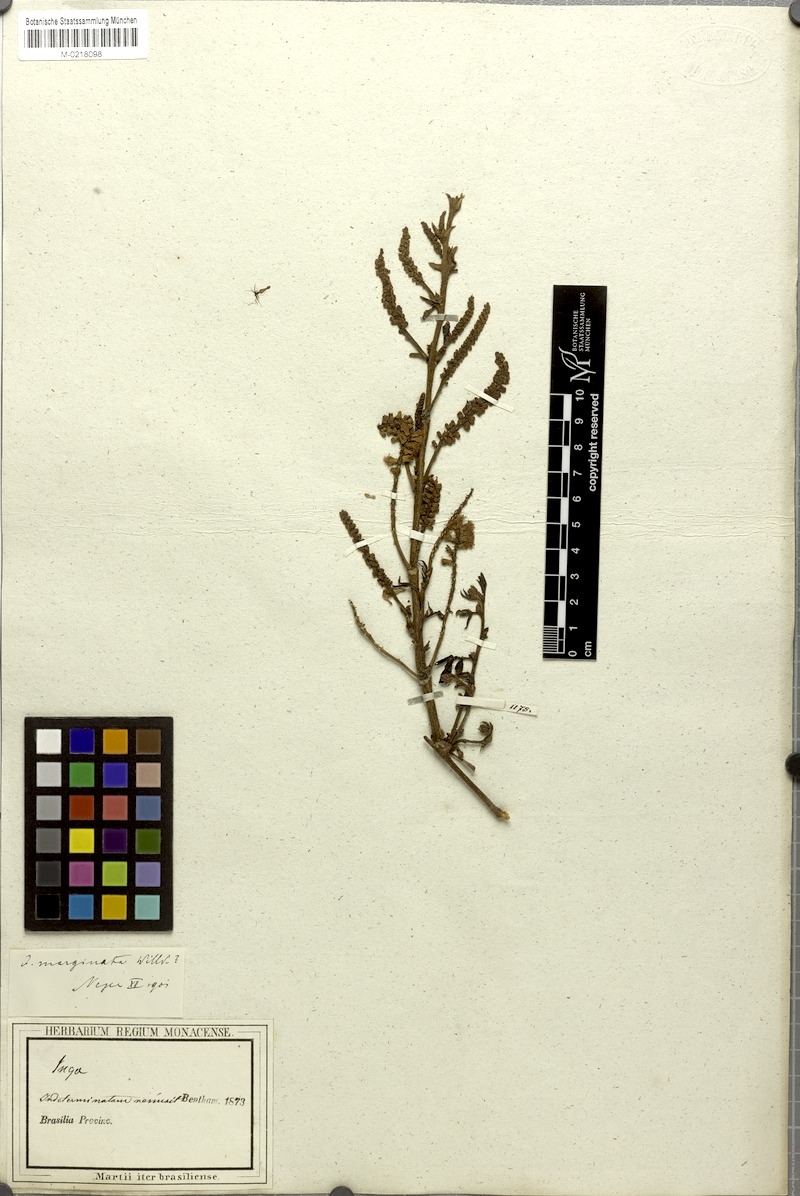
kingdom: Plantae
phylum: Tracheophyta
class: Magnoliopsida
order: Fabales
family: Fabaceae
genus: Inga
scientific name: Inga marginata
